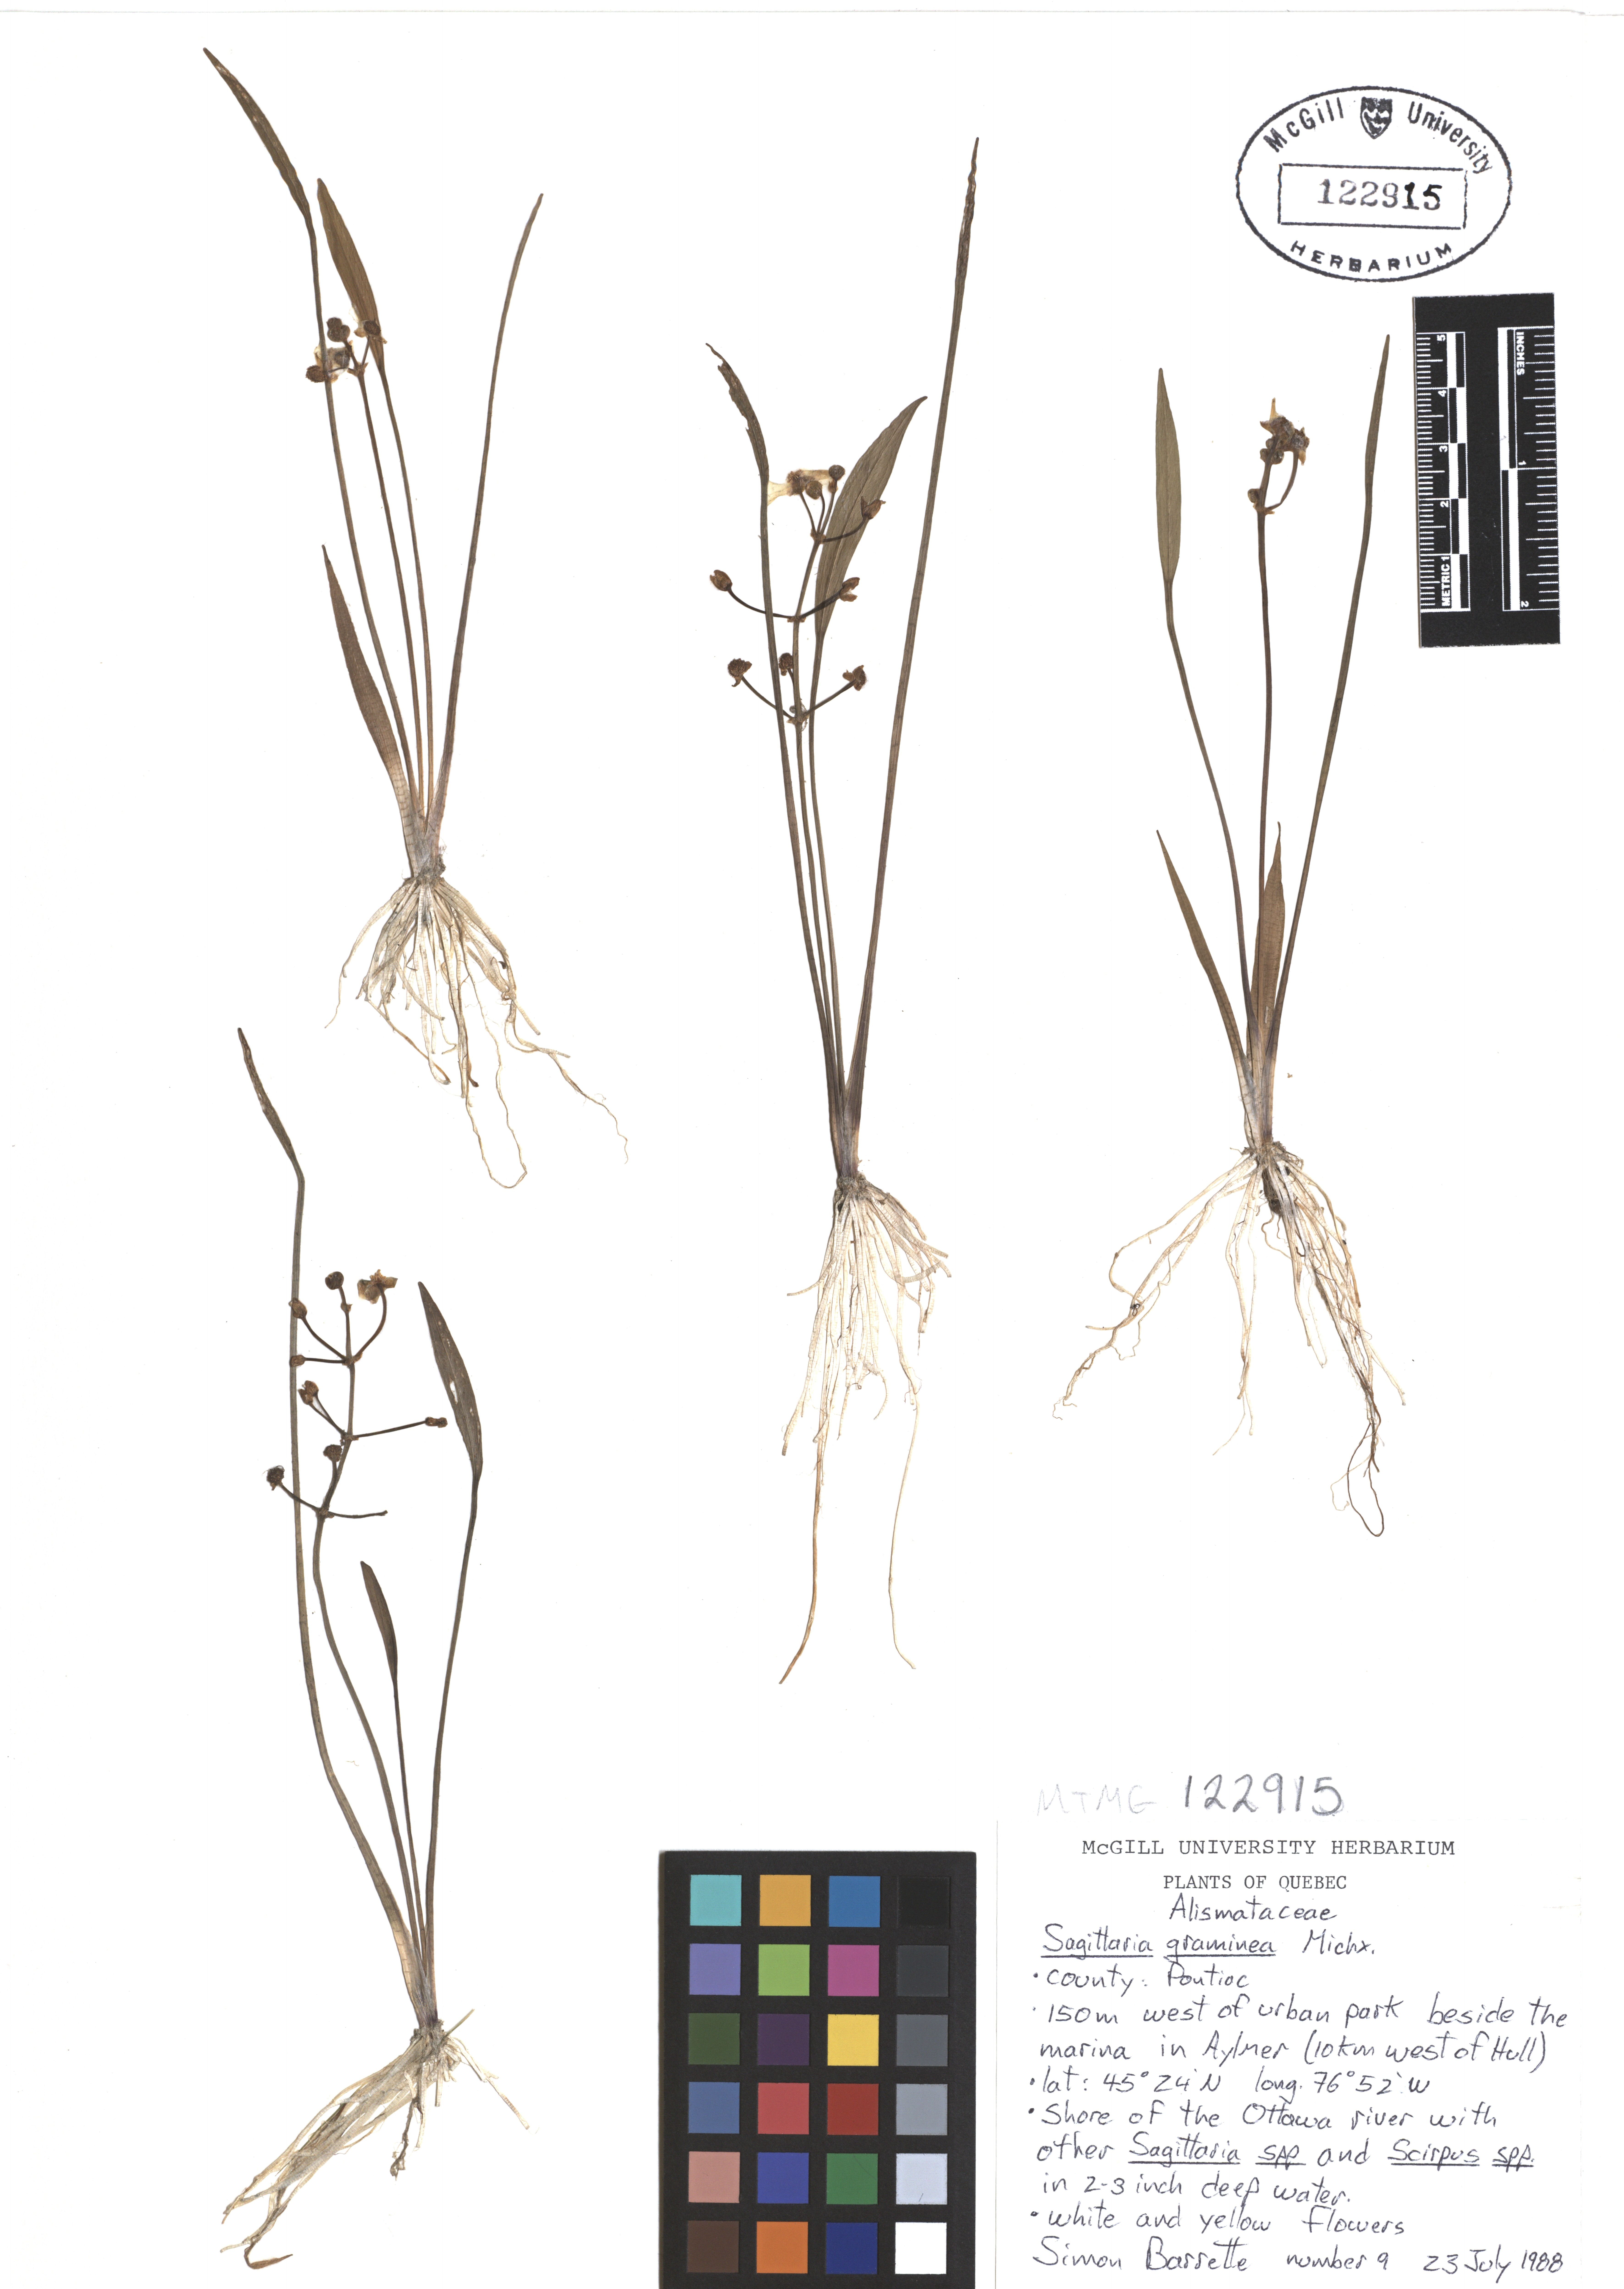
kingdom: Plantae
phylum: Tracheophyta
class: Liliopsida
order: Alismatales
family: Alismataceae
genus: Sagittaria
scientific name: Sagittaria graminea
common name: Grass-leaved arrowhead
